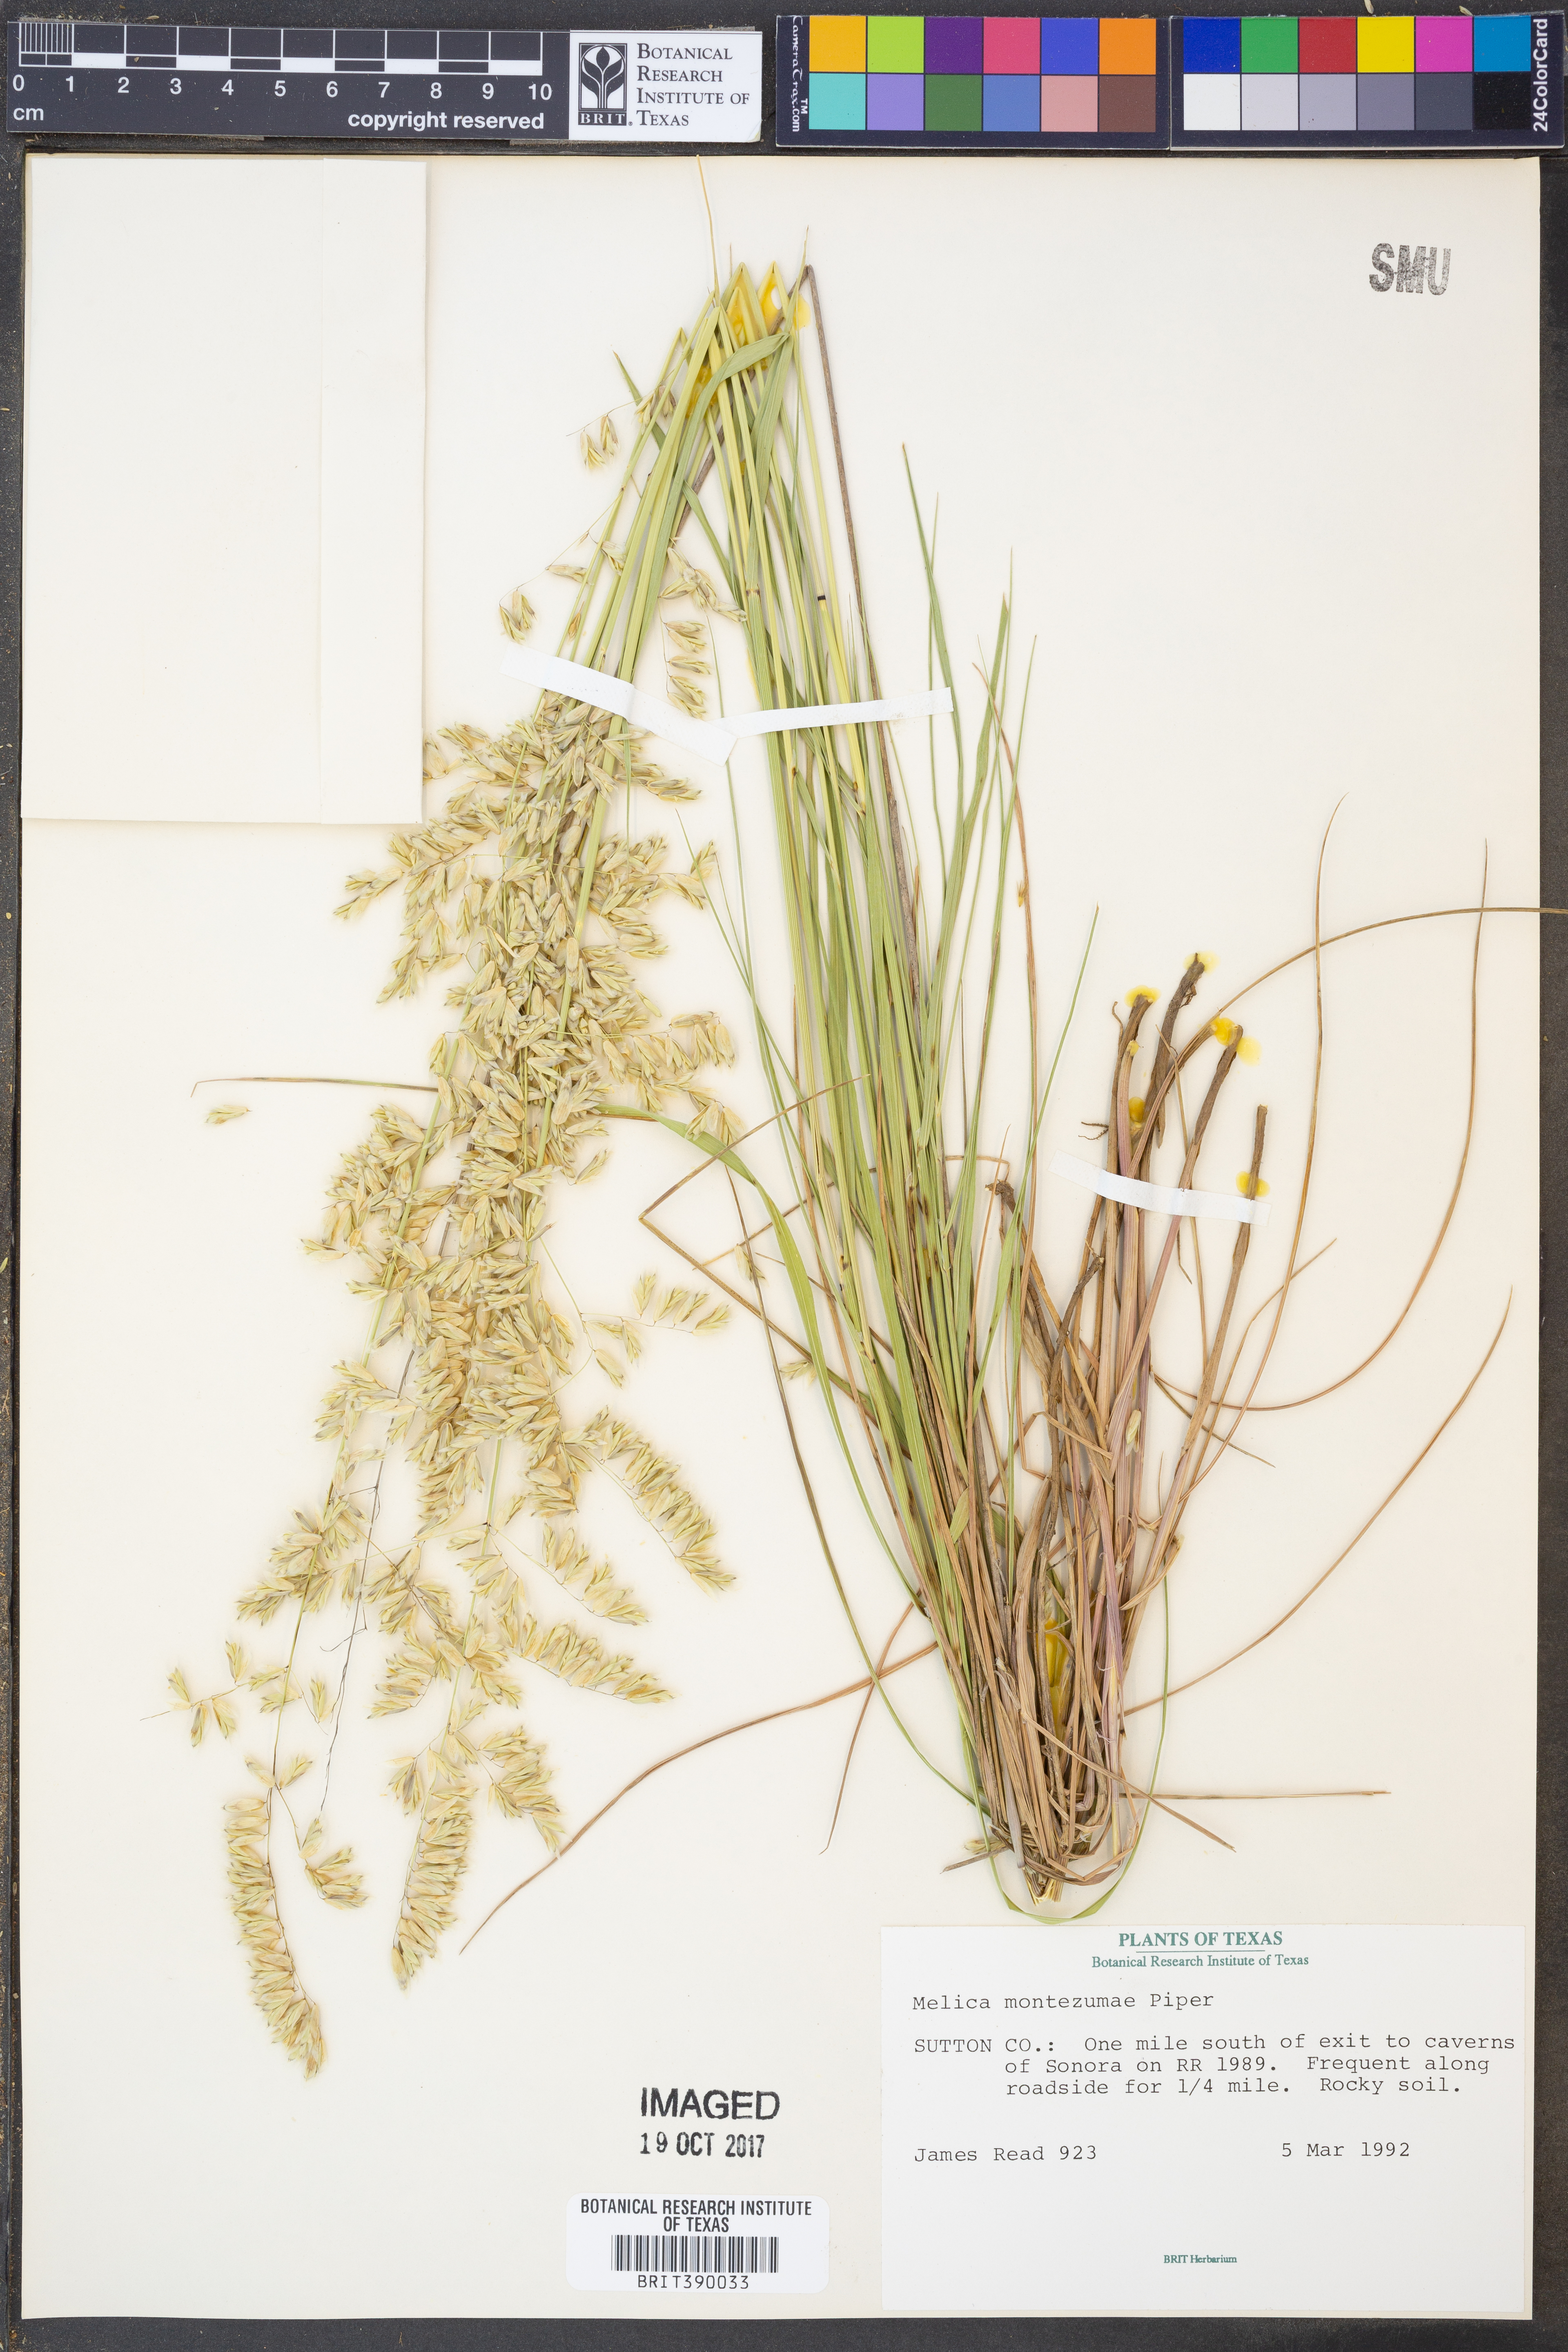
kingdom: Plantae
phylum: Tracheophyta
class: Liliopsida
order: Poales
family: Poaceae
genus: Melica
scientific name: Melica montezumae
